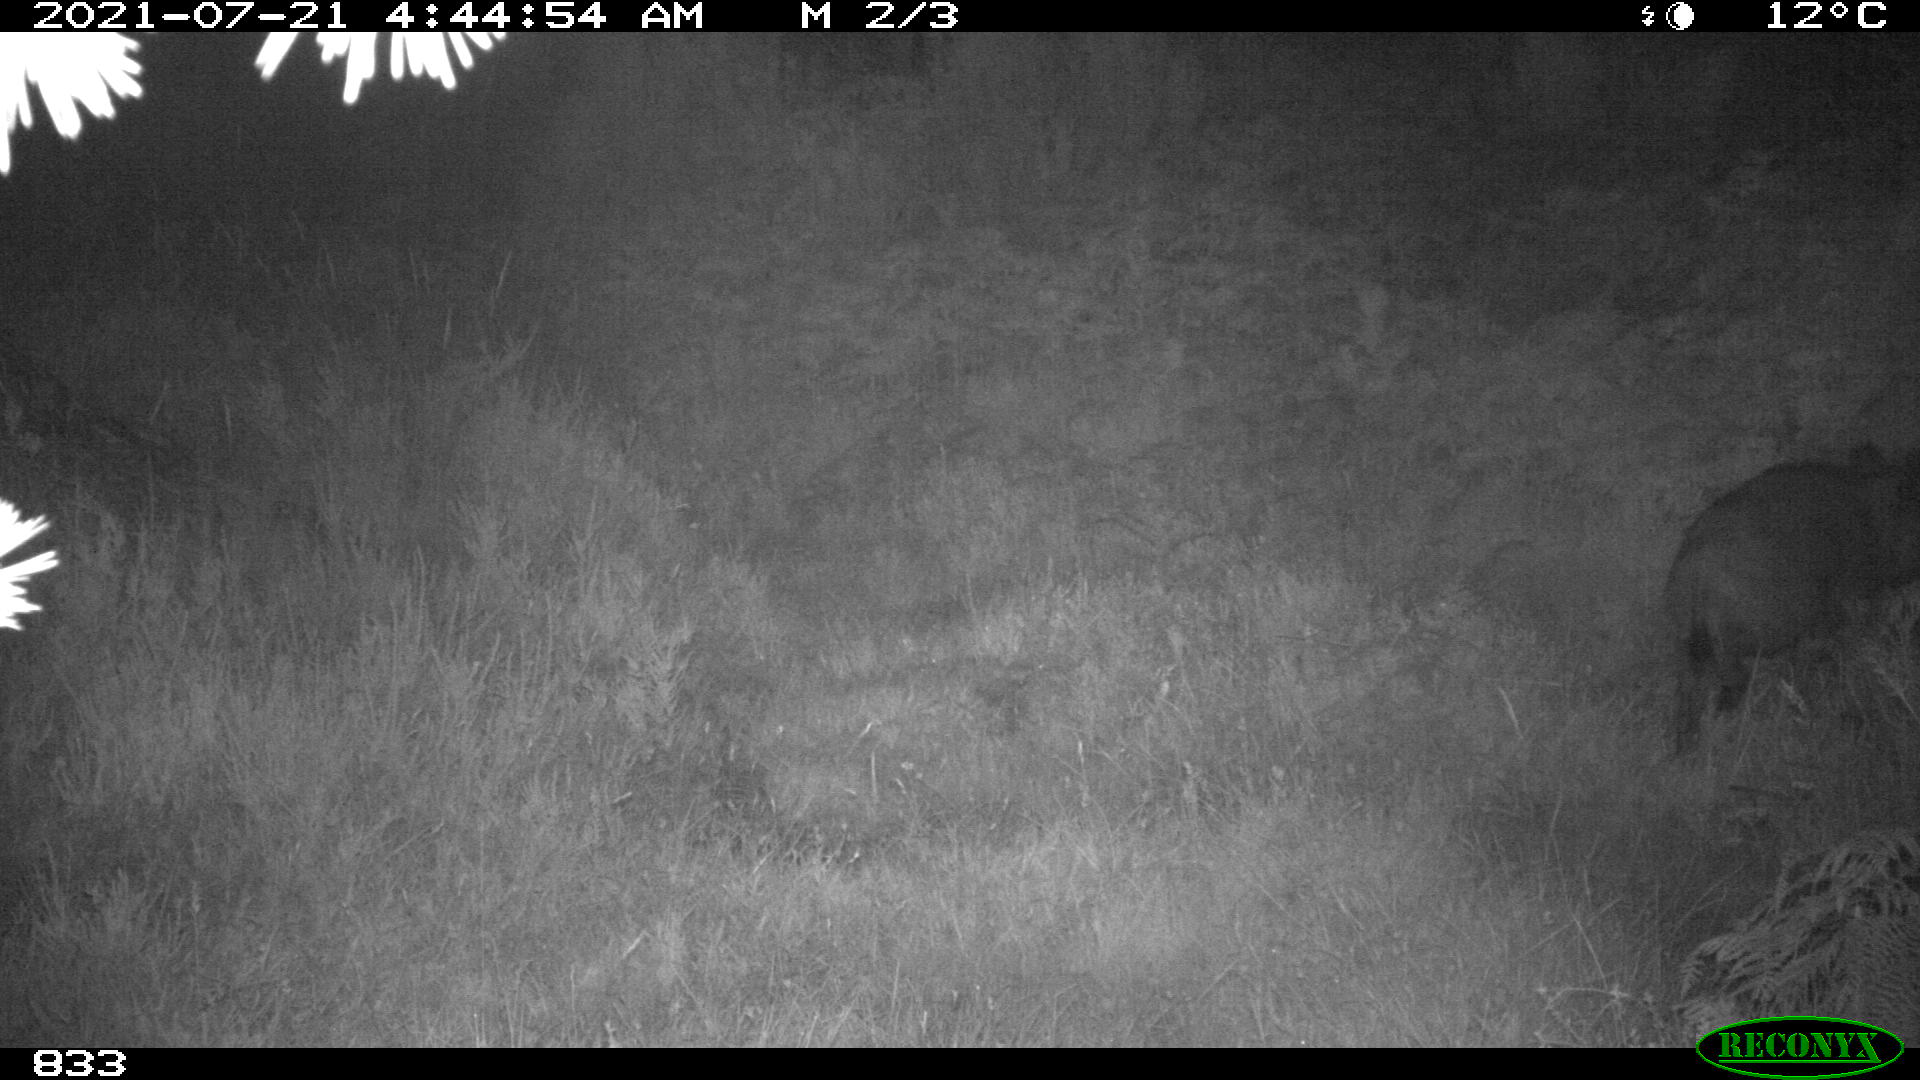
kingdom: Animalia
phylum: Chordata
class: Mammalia
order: Artiodactyla
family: Suidae
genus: Sus
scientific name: Sus scrofa
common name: Wild boar
